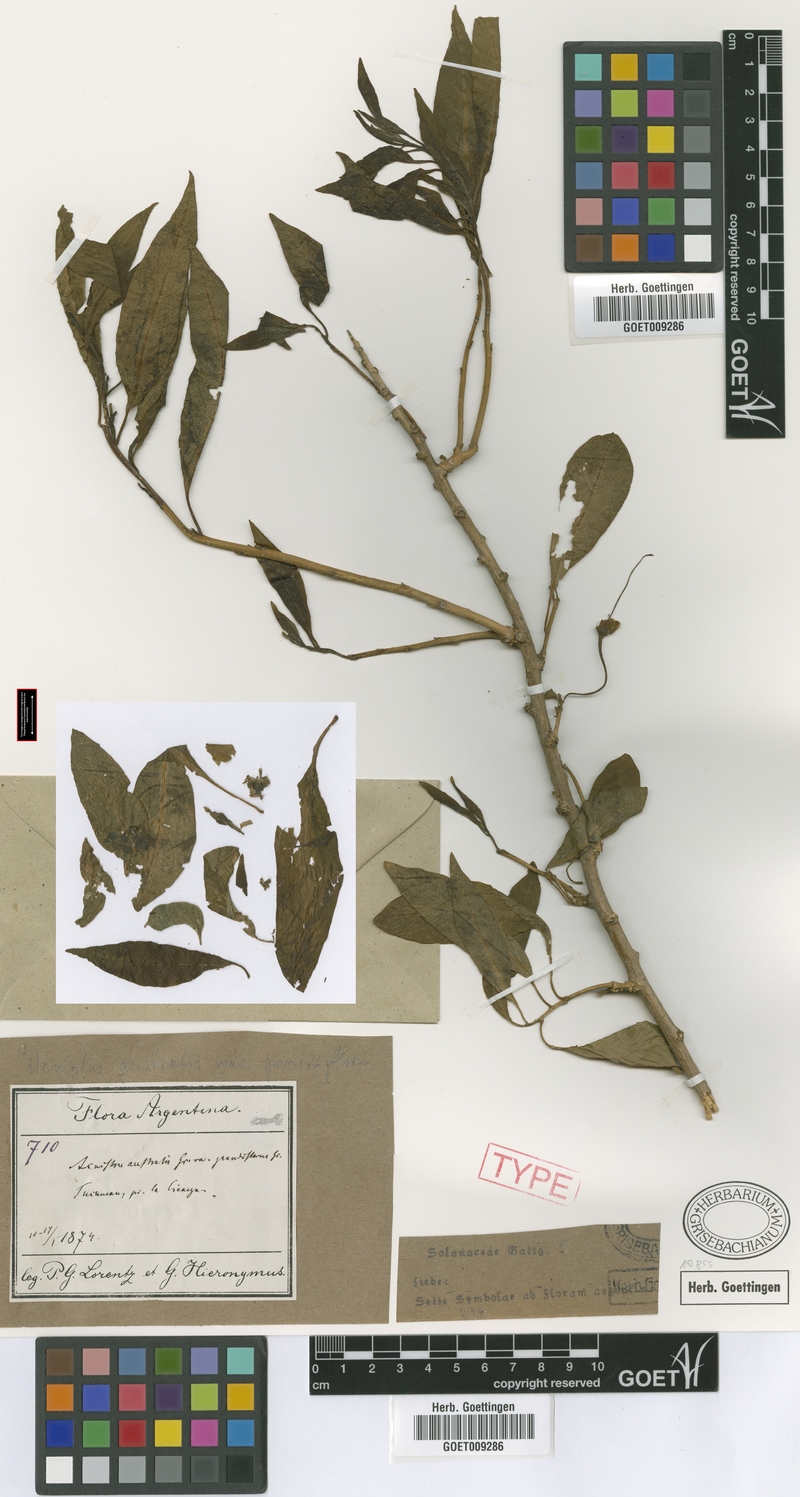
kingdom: Plantae
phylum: Tracheophyta
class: Magnoliopsida
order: Solanales
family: Solanaceae
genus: Eriolarynx
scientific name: Eriolarynx australis
